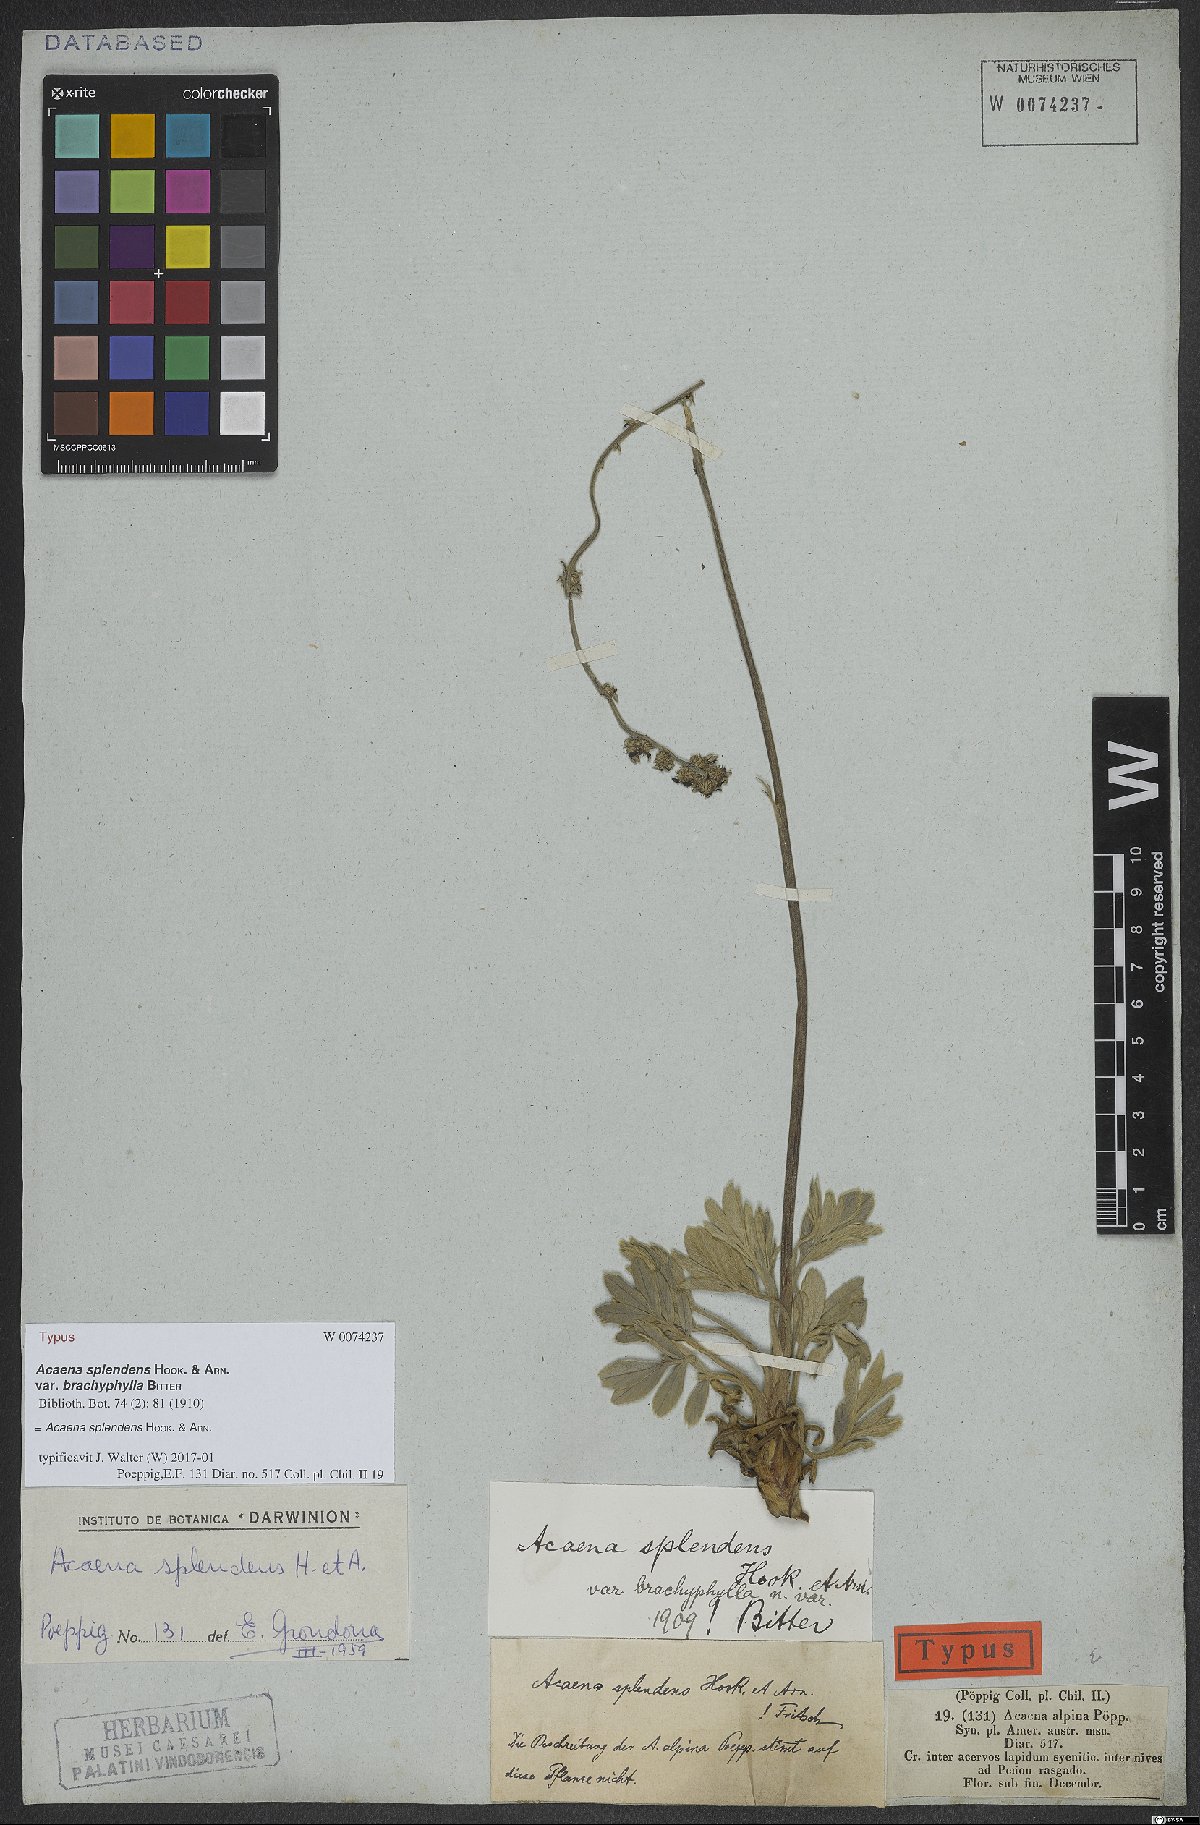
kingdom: Plantae
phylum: Tracheophyta
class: Magnoliopsida
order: Rosales
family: Rosaceae
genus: Acaena
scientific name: Acaena splendens
